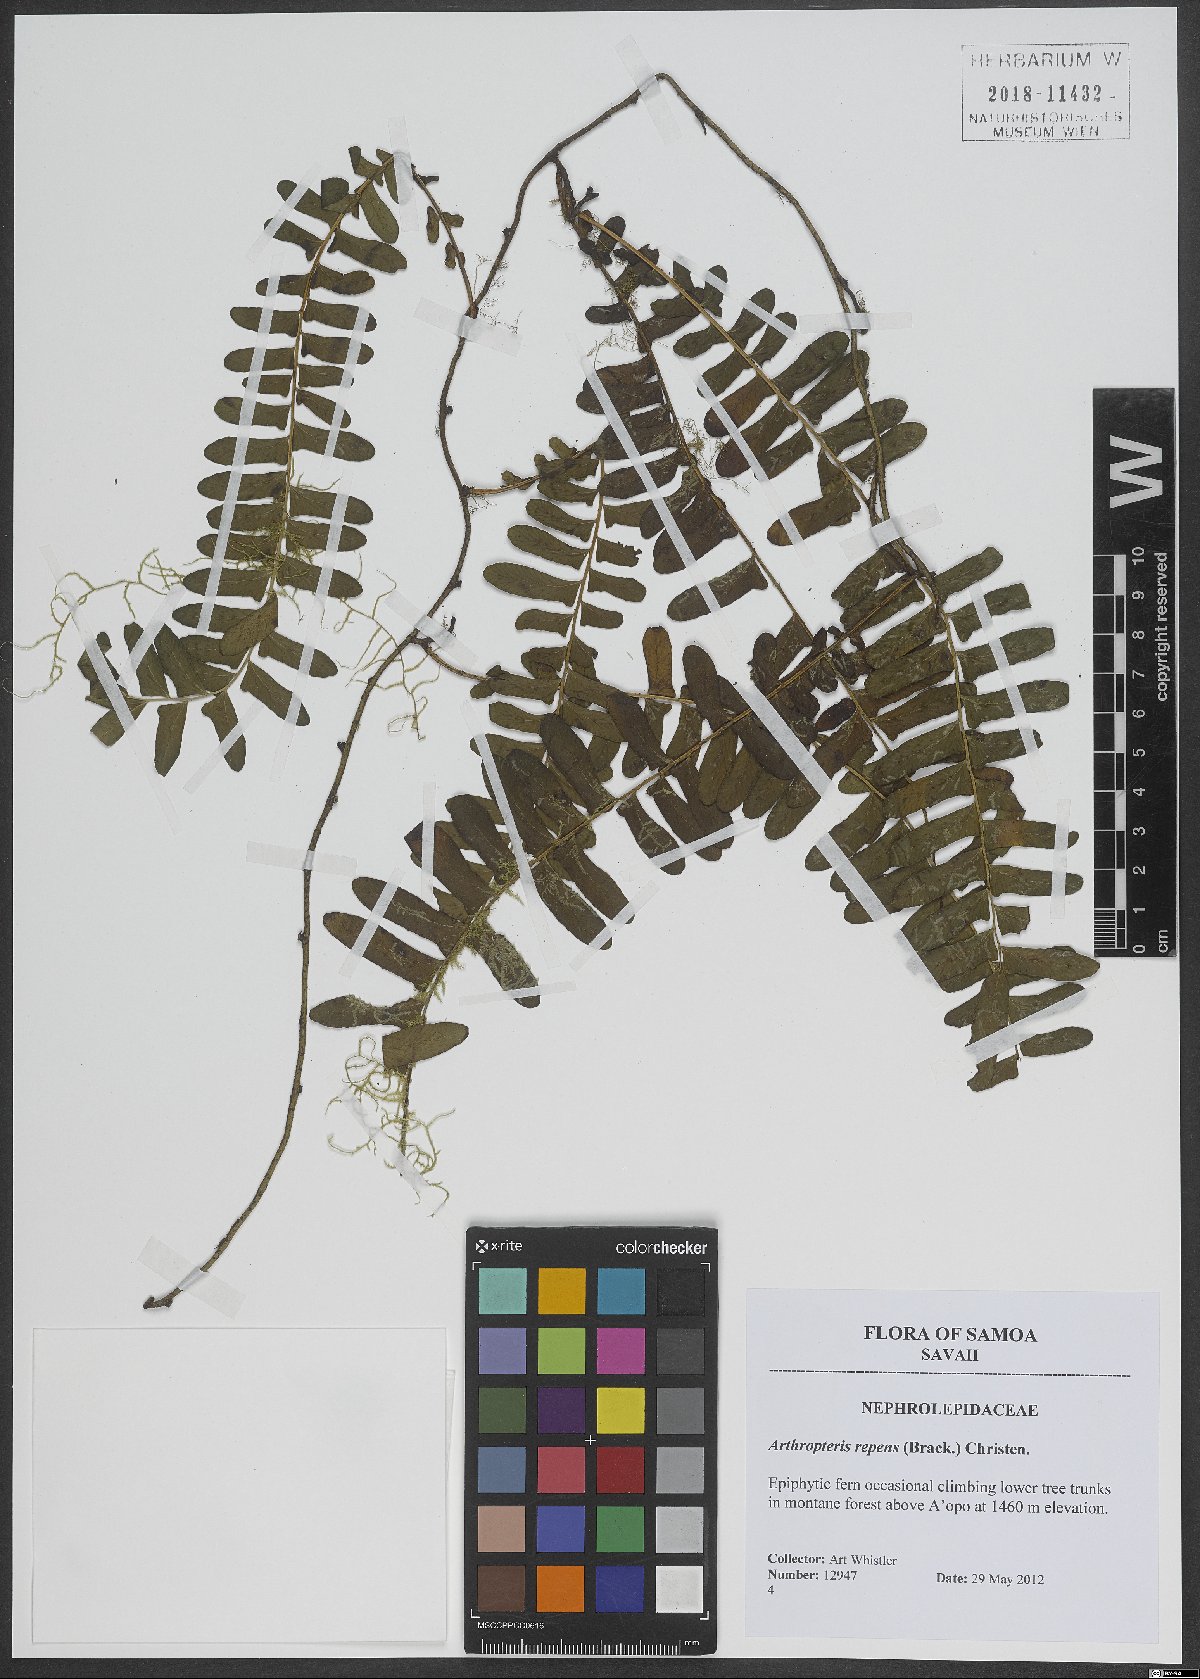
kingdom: Plantae
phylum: Tracheophyta
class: Polypodiopsida
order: Polypodiales
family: Tectariaceae
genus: Arthropteris
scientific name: Arthropteris palisotii
